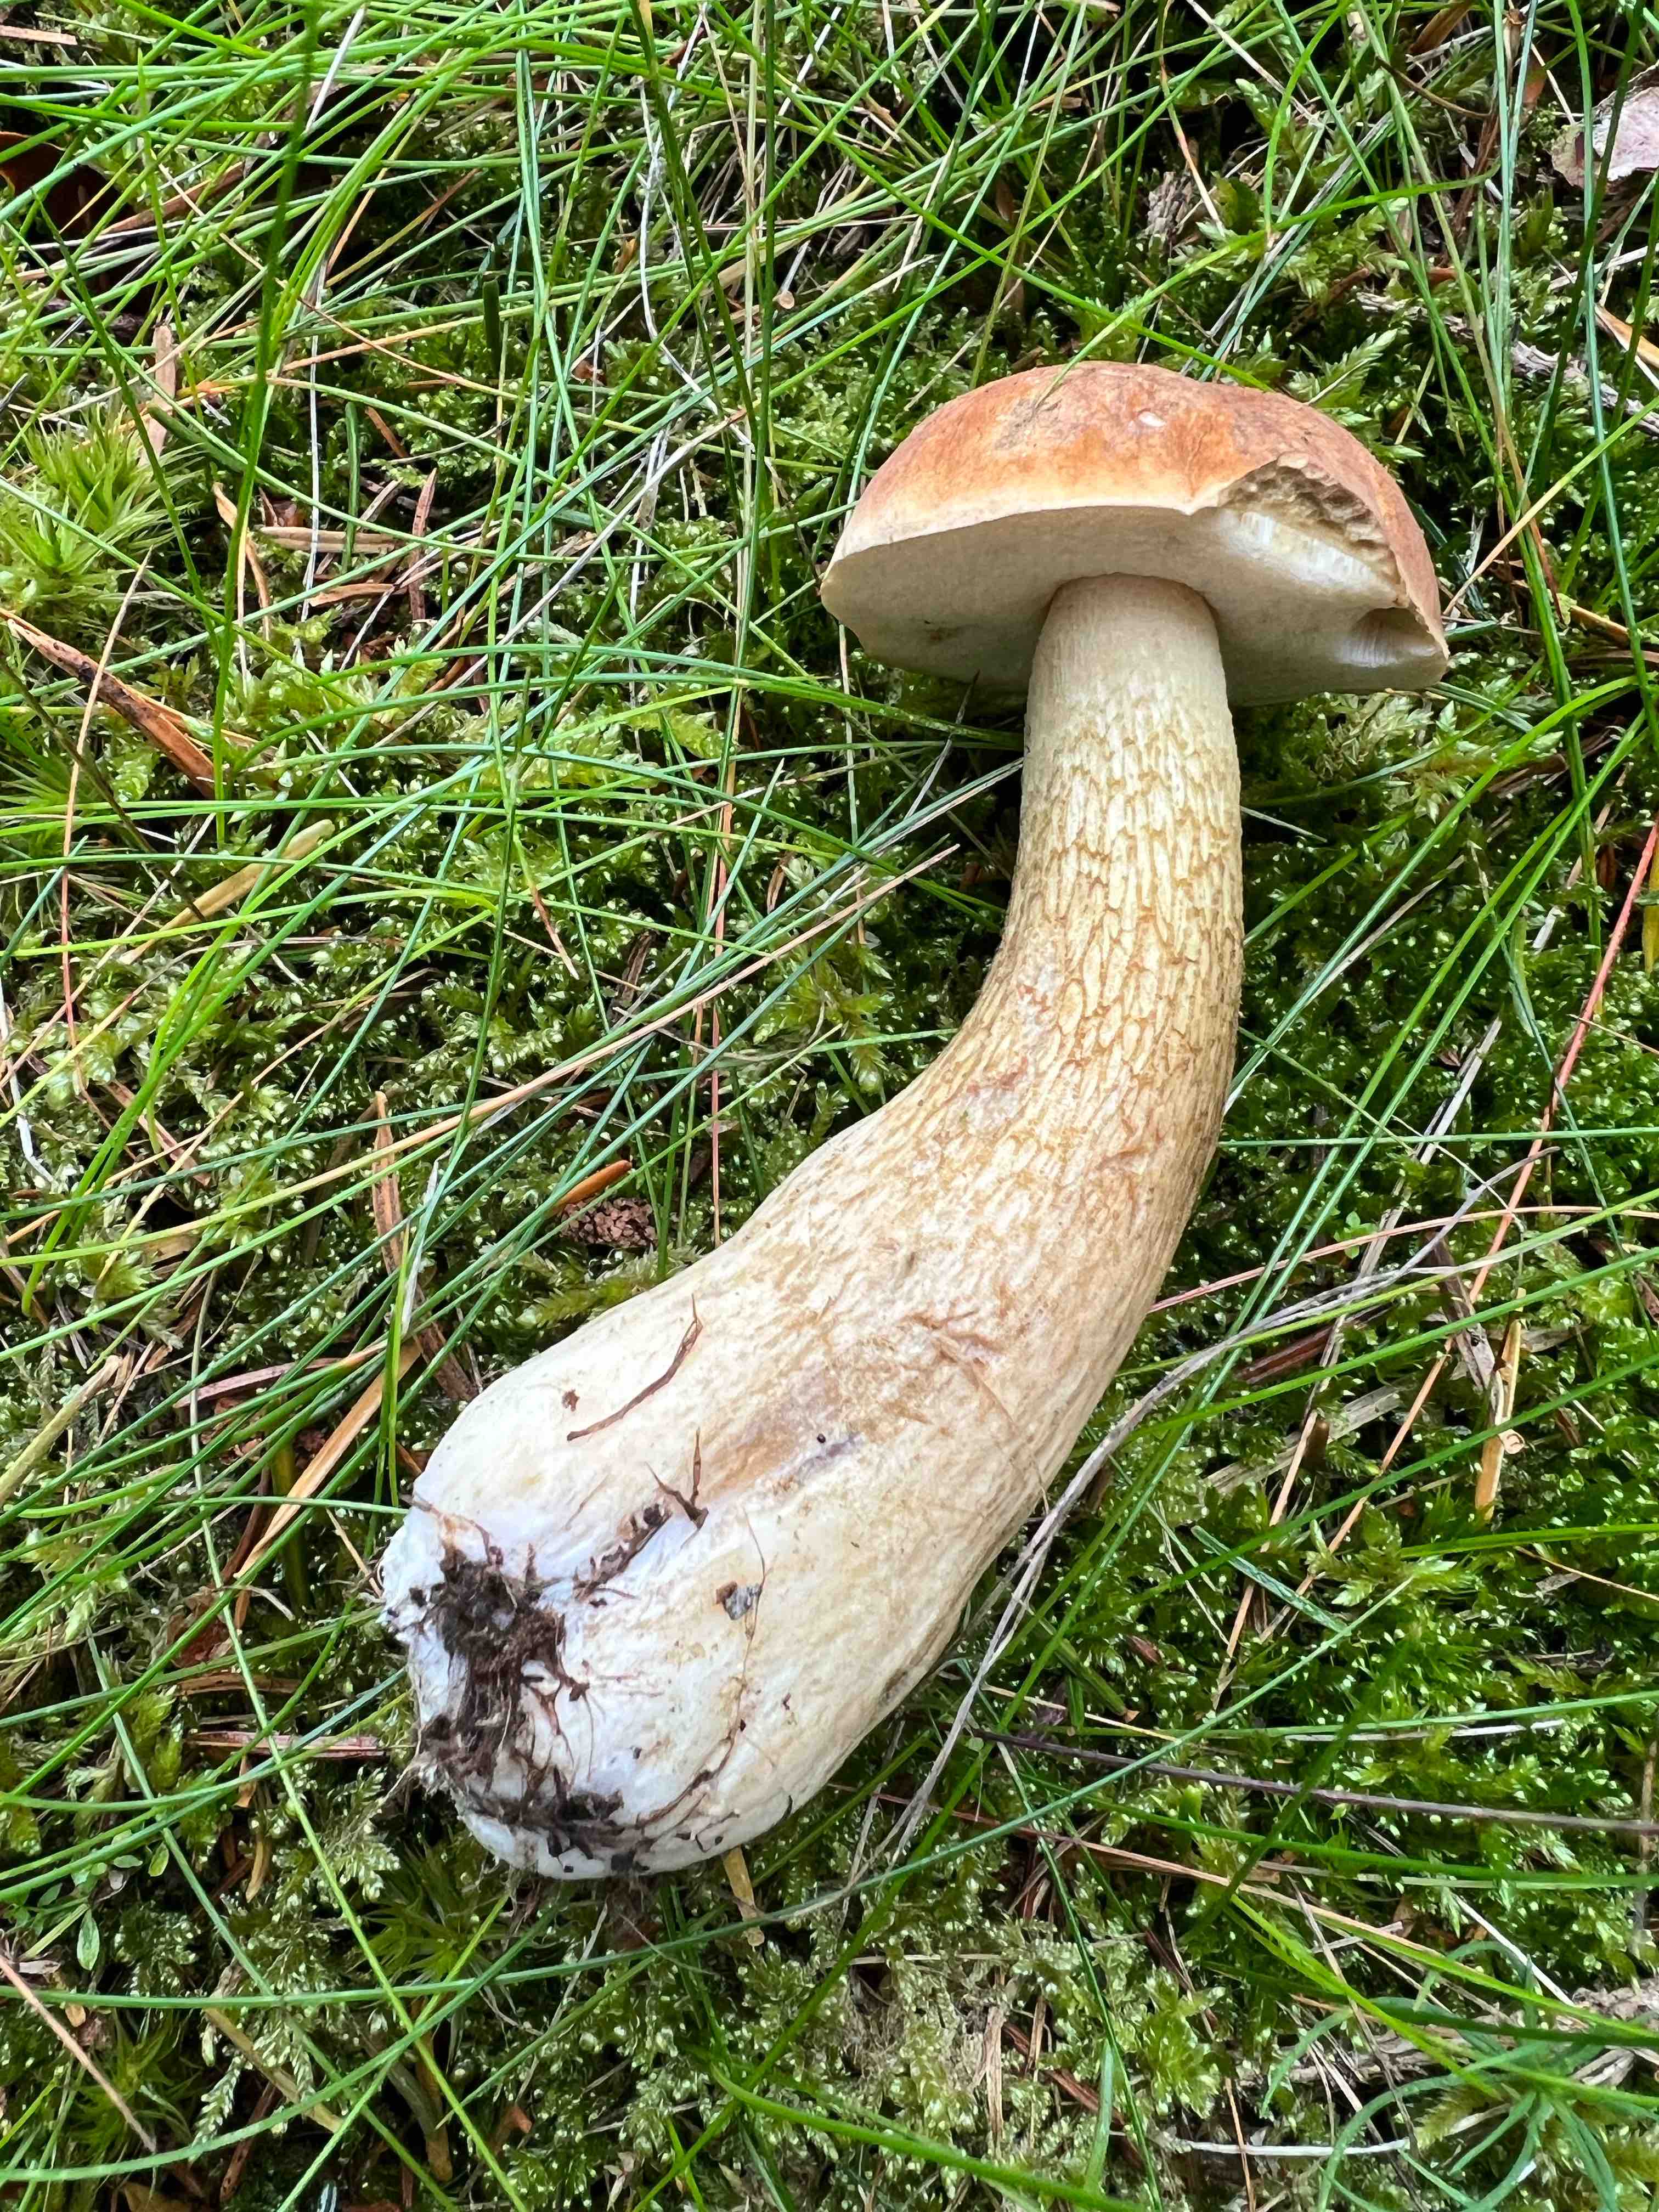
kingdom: Fungi
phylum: Basidiomycota
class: Agaricomycetes
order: Boletales
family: Boletaceae
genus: Tylopilus
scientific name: Tylopilus felleus
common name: galderørhat
